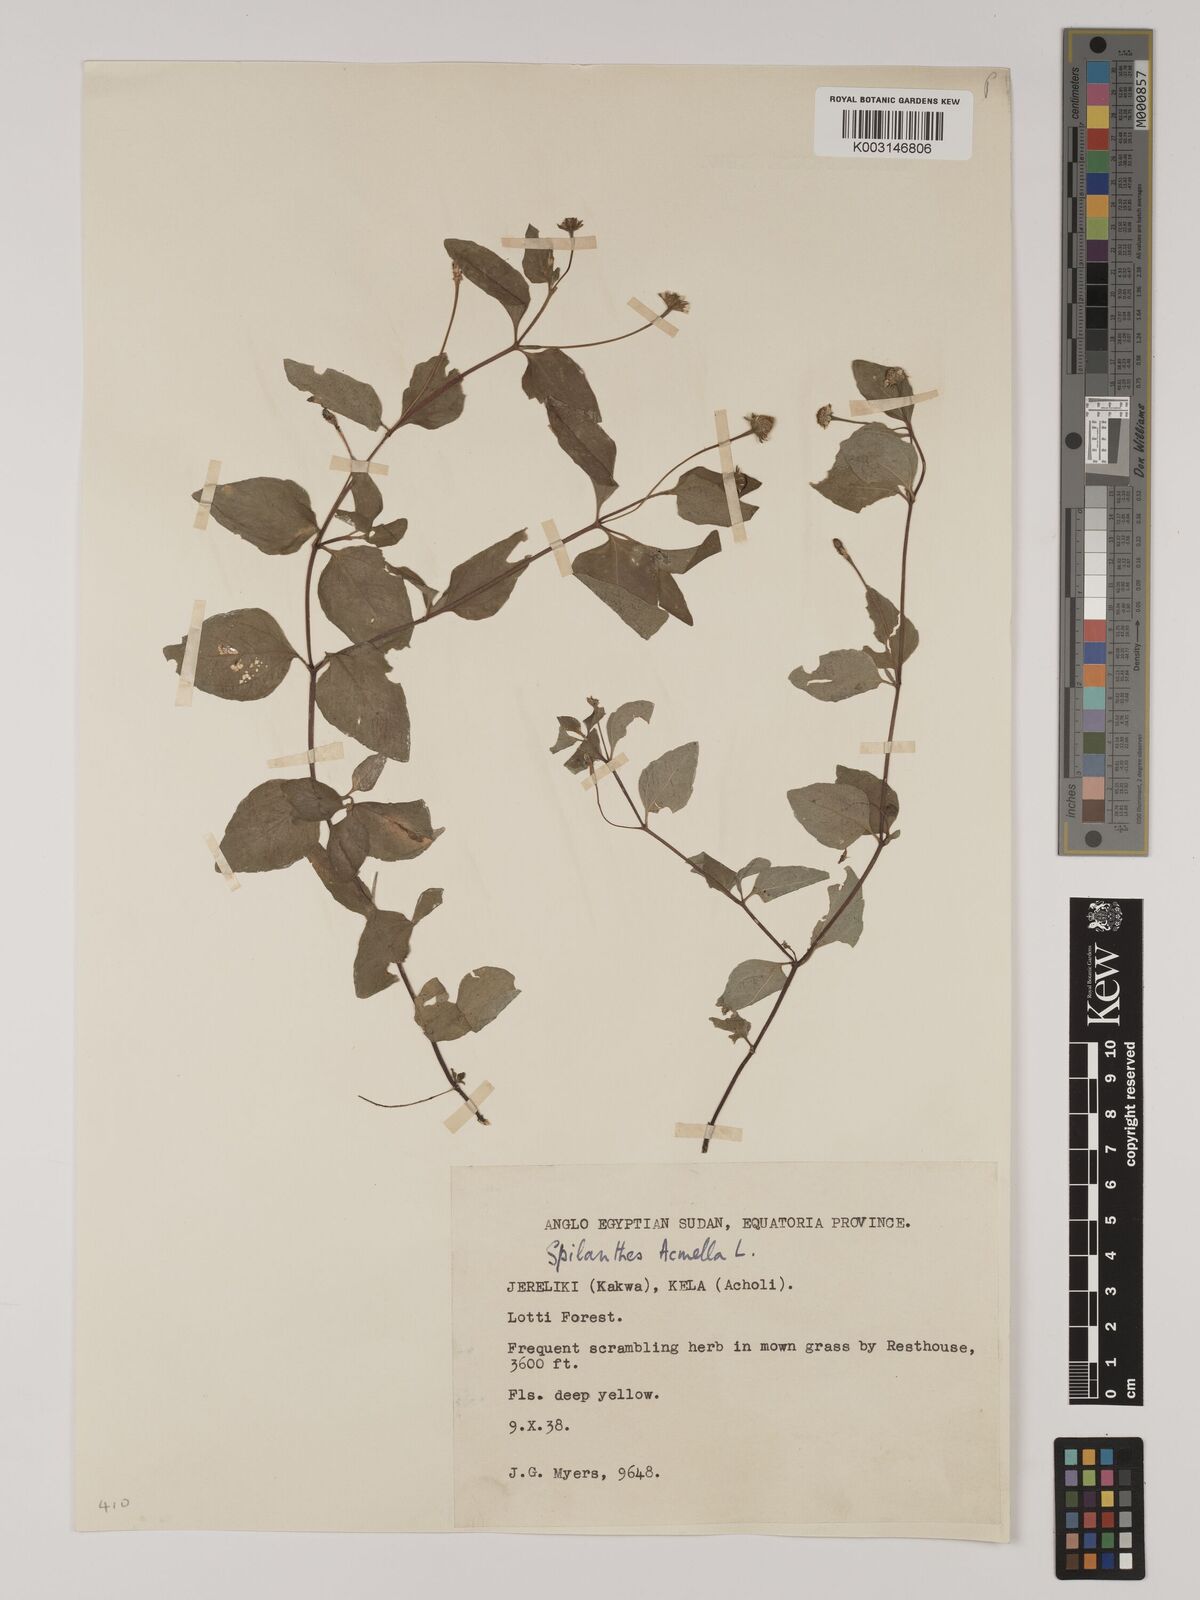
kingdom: Plantae
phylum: Tracheophyta
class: Magnoliopsida
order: Asterales
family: Asteraceae
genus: Blainvillea
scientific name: Blainvillea acmella
